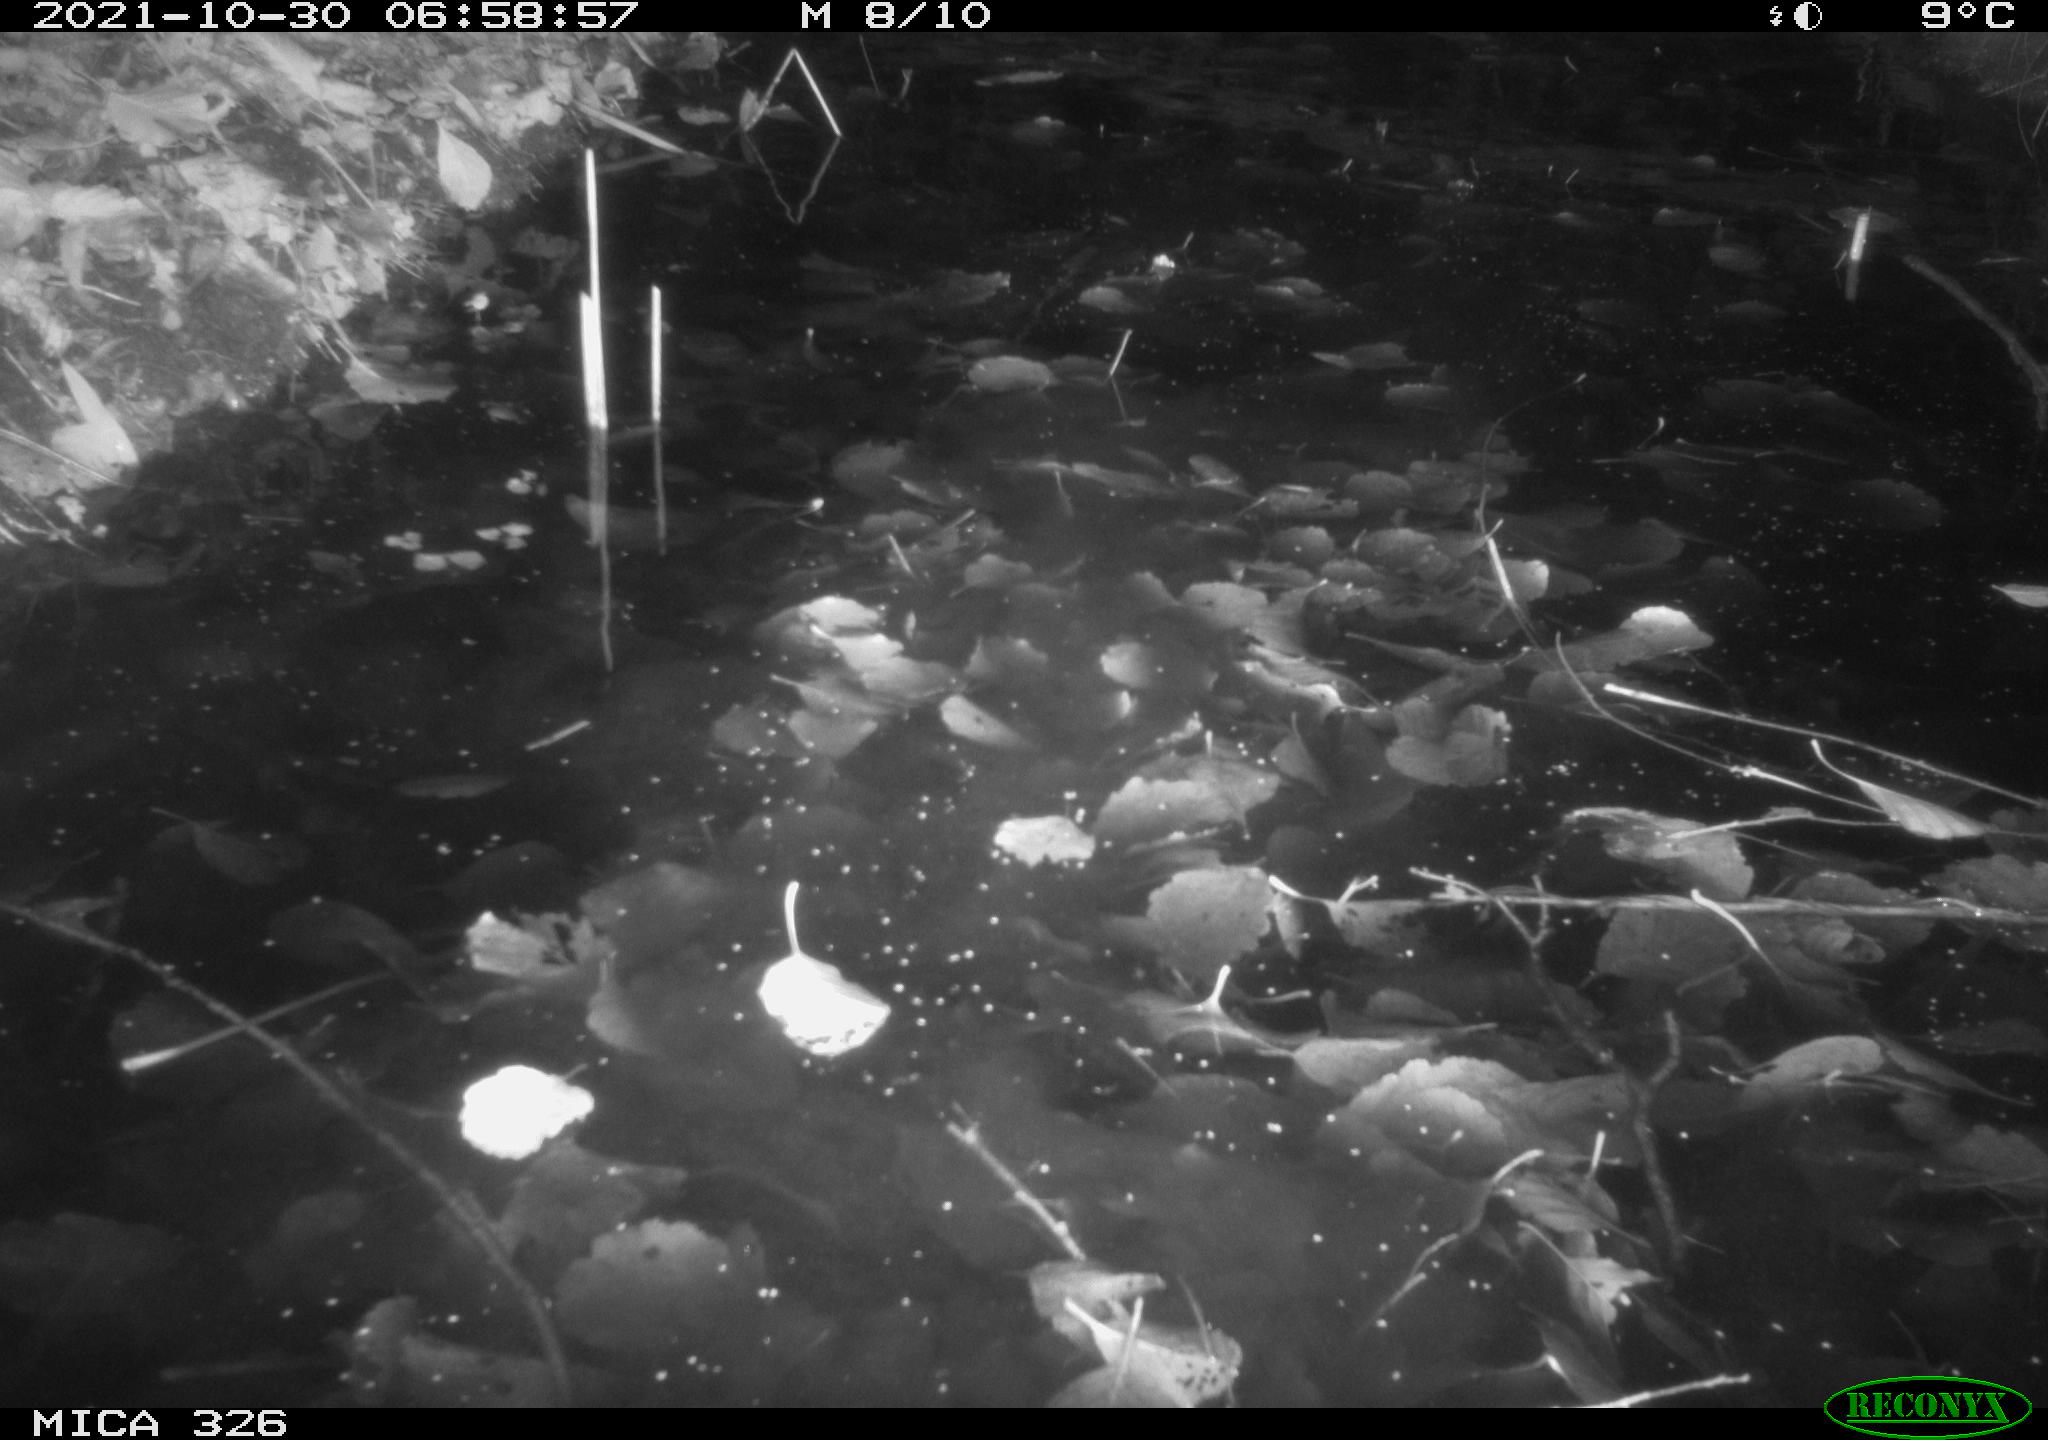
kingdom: Animalia
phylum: Chordata
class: Mammalia
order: Rodentia
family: Myocastoridae
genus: Myocastor
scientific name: Myocastor coypus
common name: Coypu
